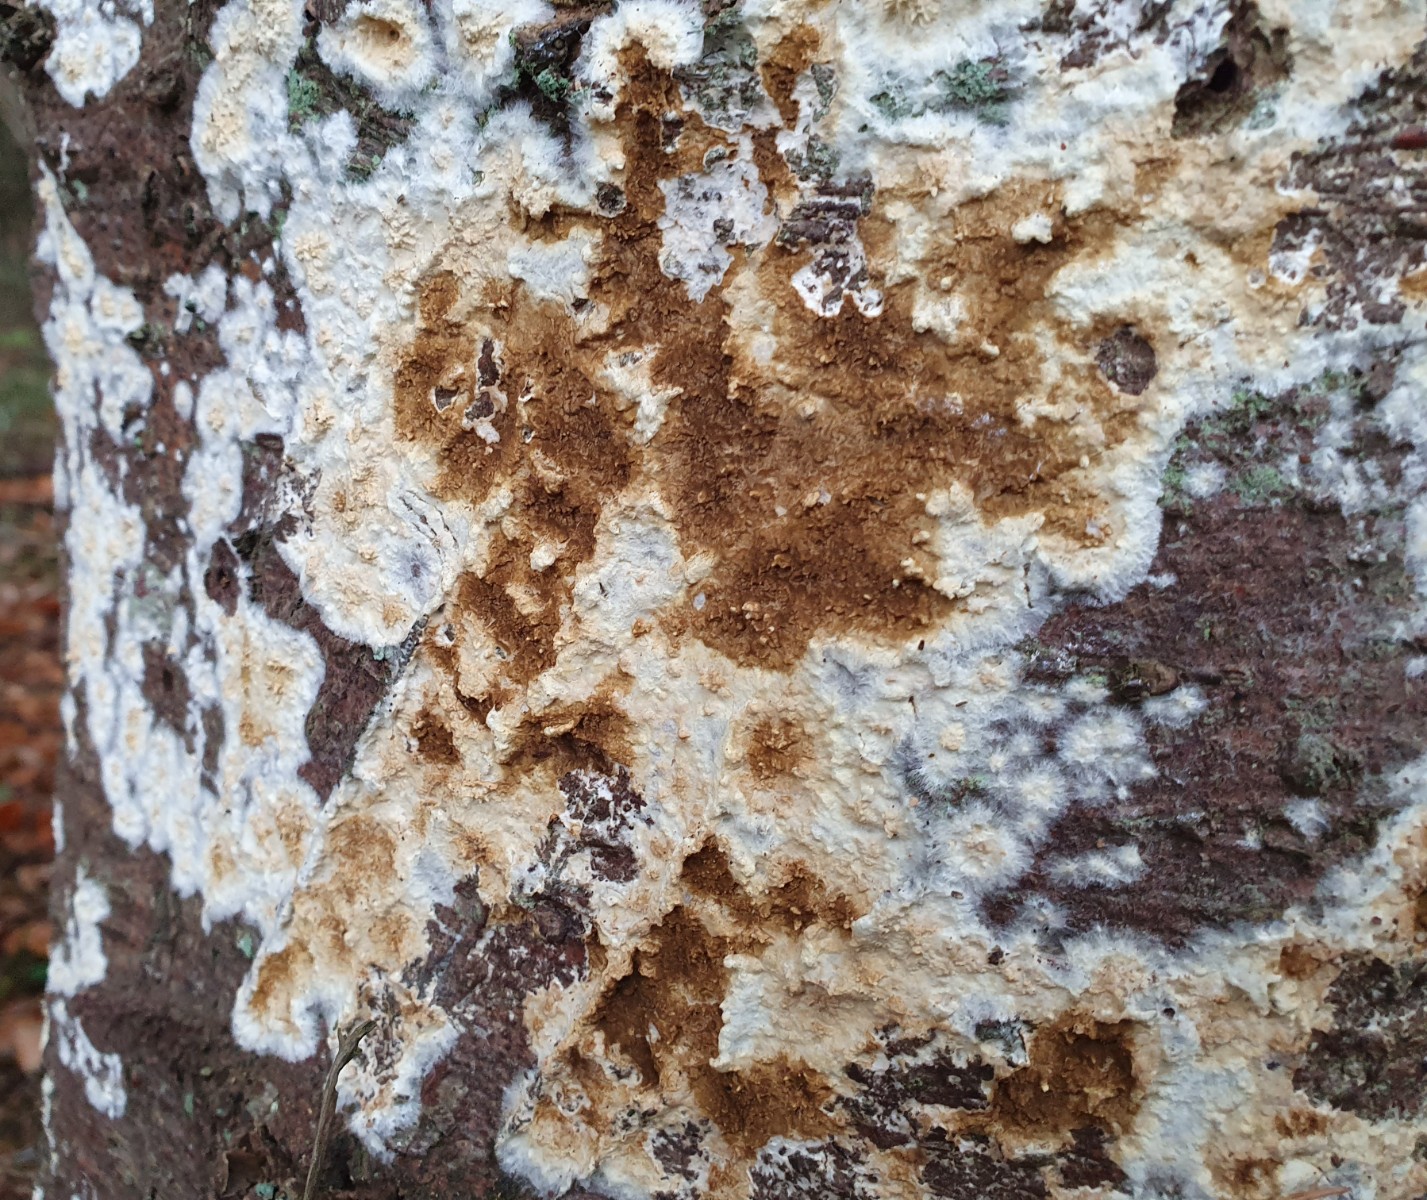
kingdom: Fungi
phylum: Basidiomycota
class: Agaricomycetes
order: Boletales
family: Coniophoraceae
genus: Coniophora
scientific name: Coniophora puteana
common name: gul tømmersvamp
